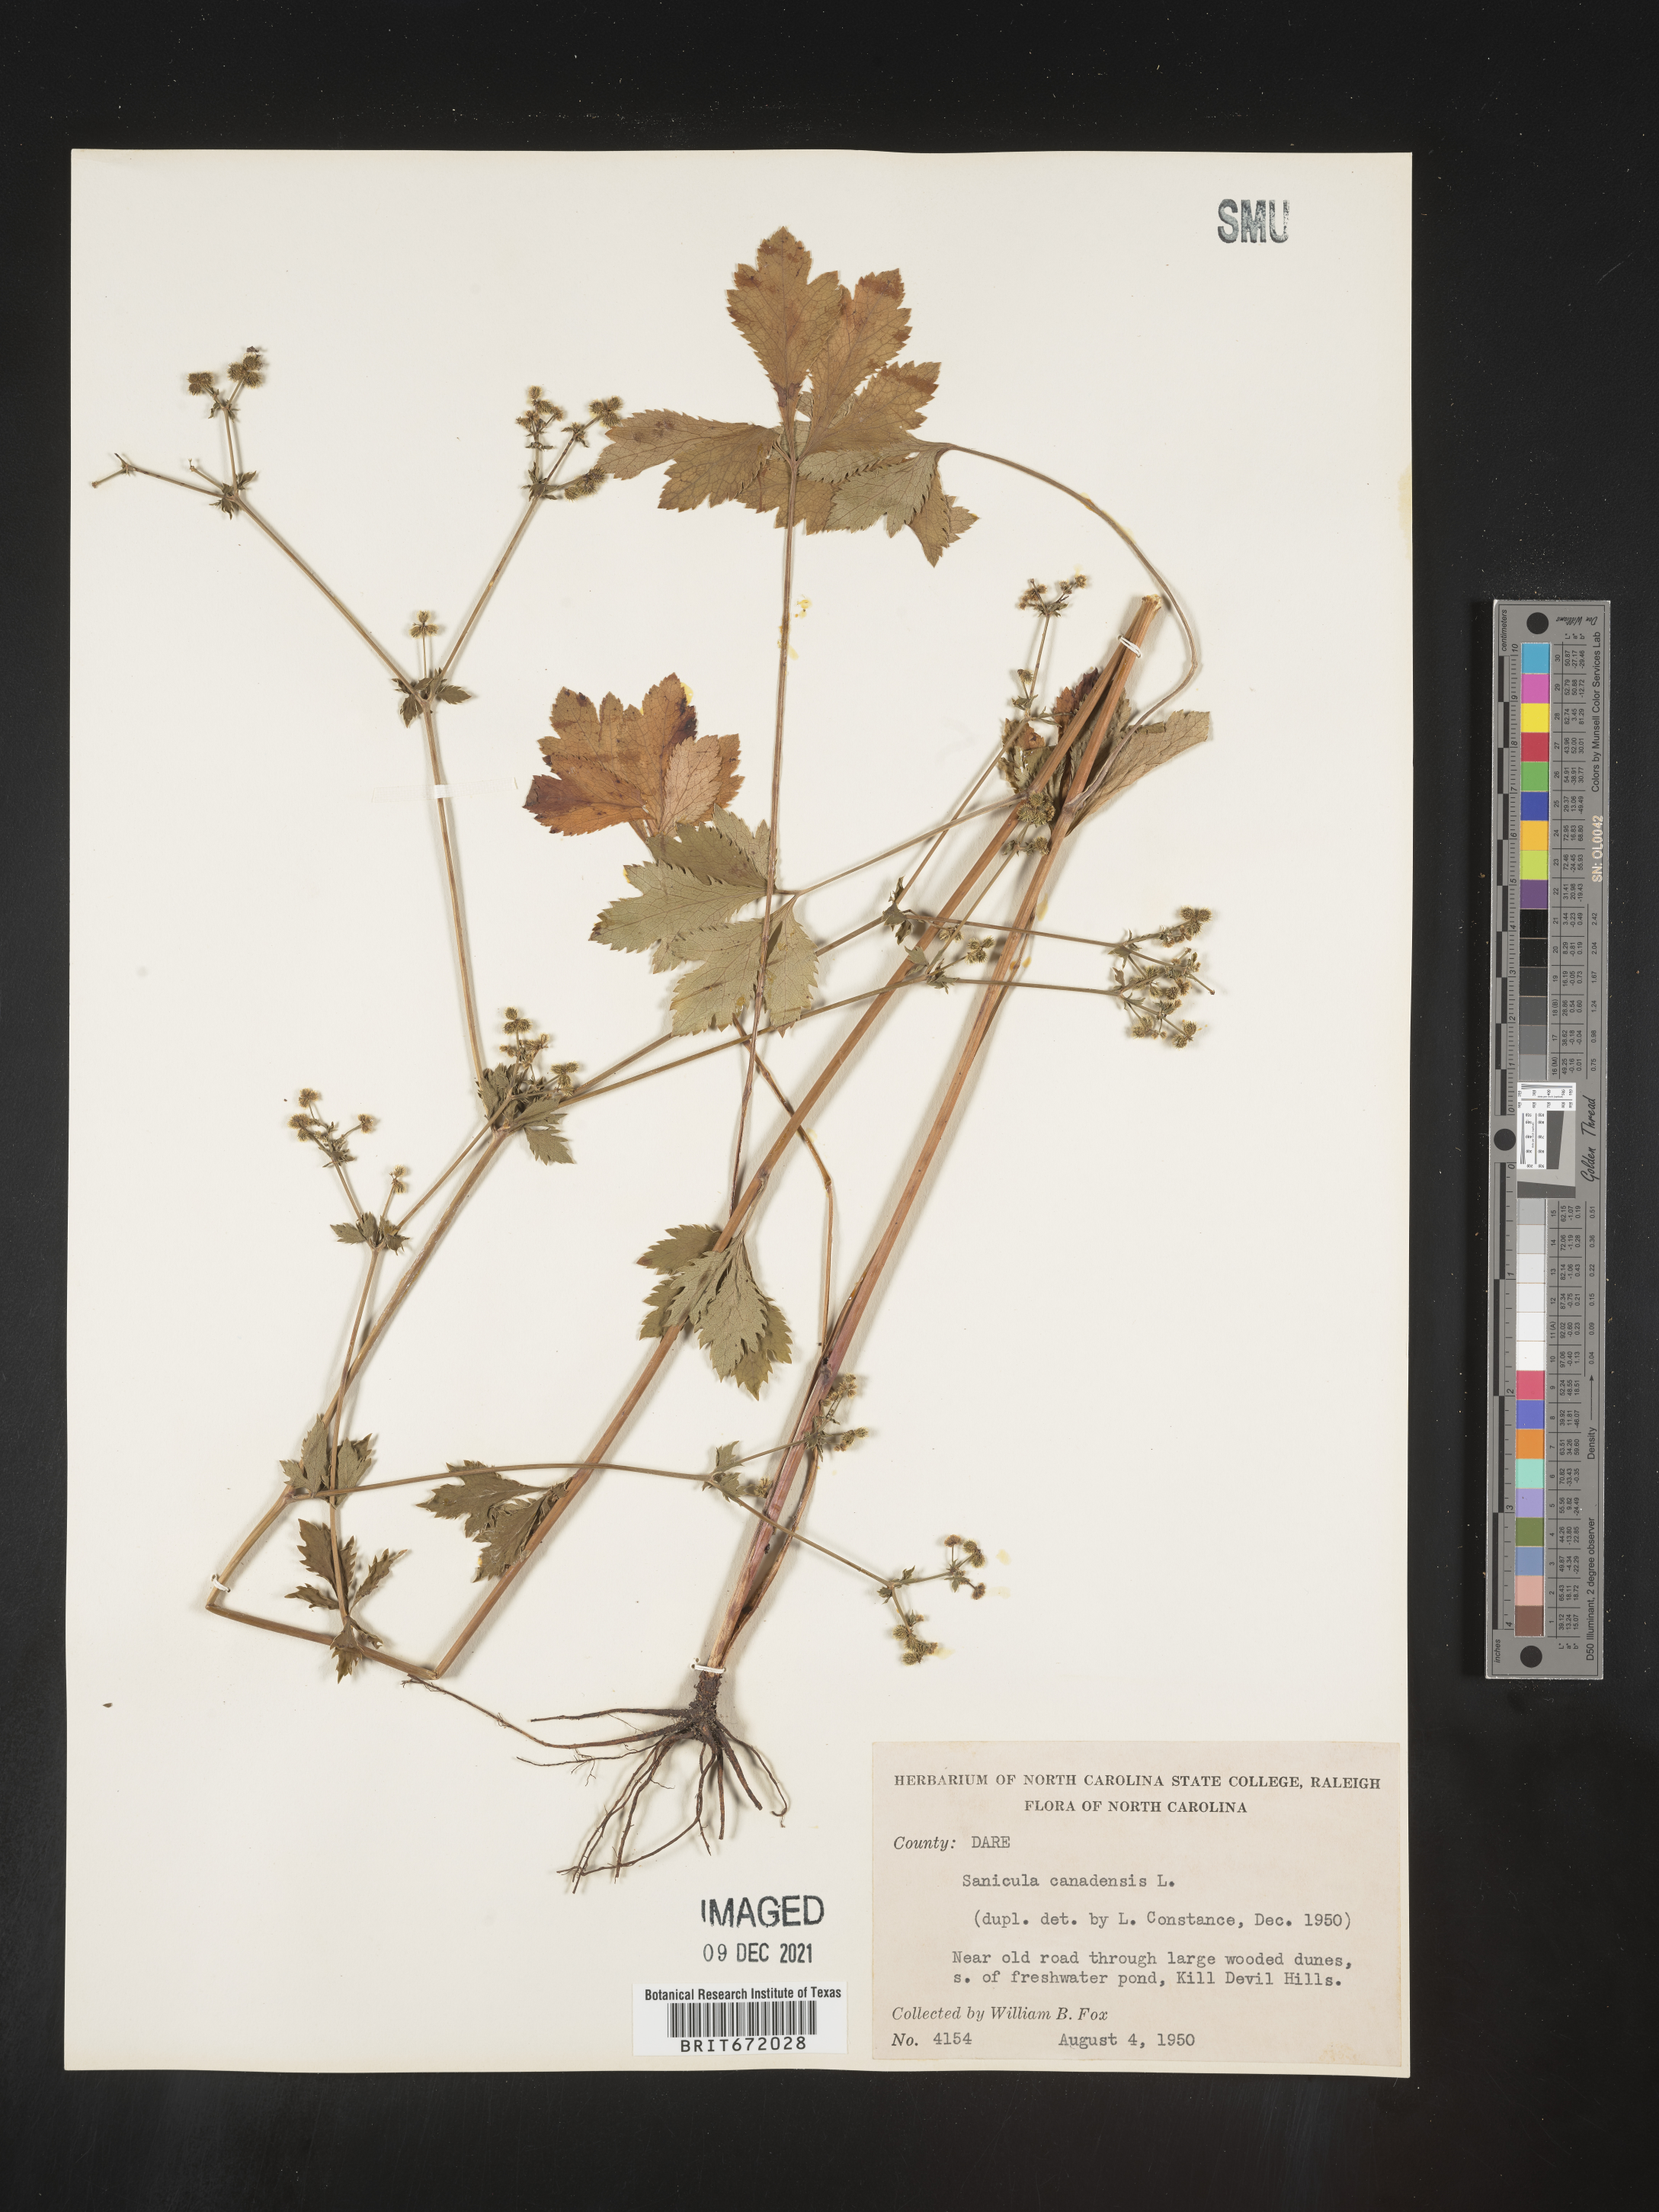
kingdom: Plantae
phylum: Tracheophyta
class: Magnoliopsida
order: Apiales
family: Apiaceae
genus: Sanicula
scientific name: Sanicula canadensis
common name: Canada sanicle
